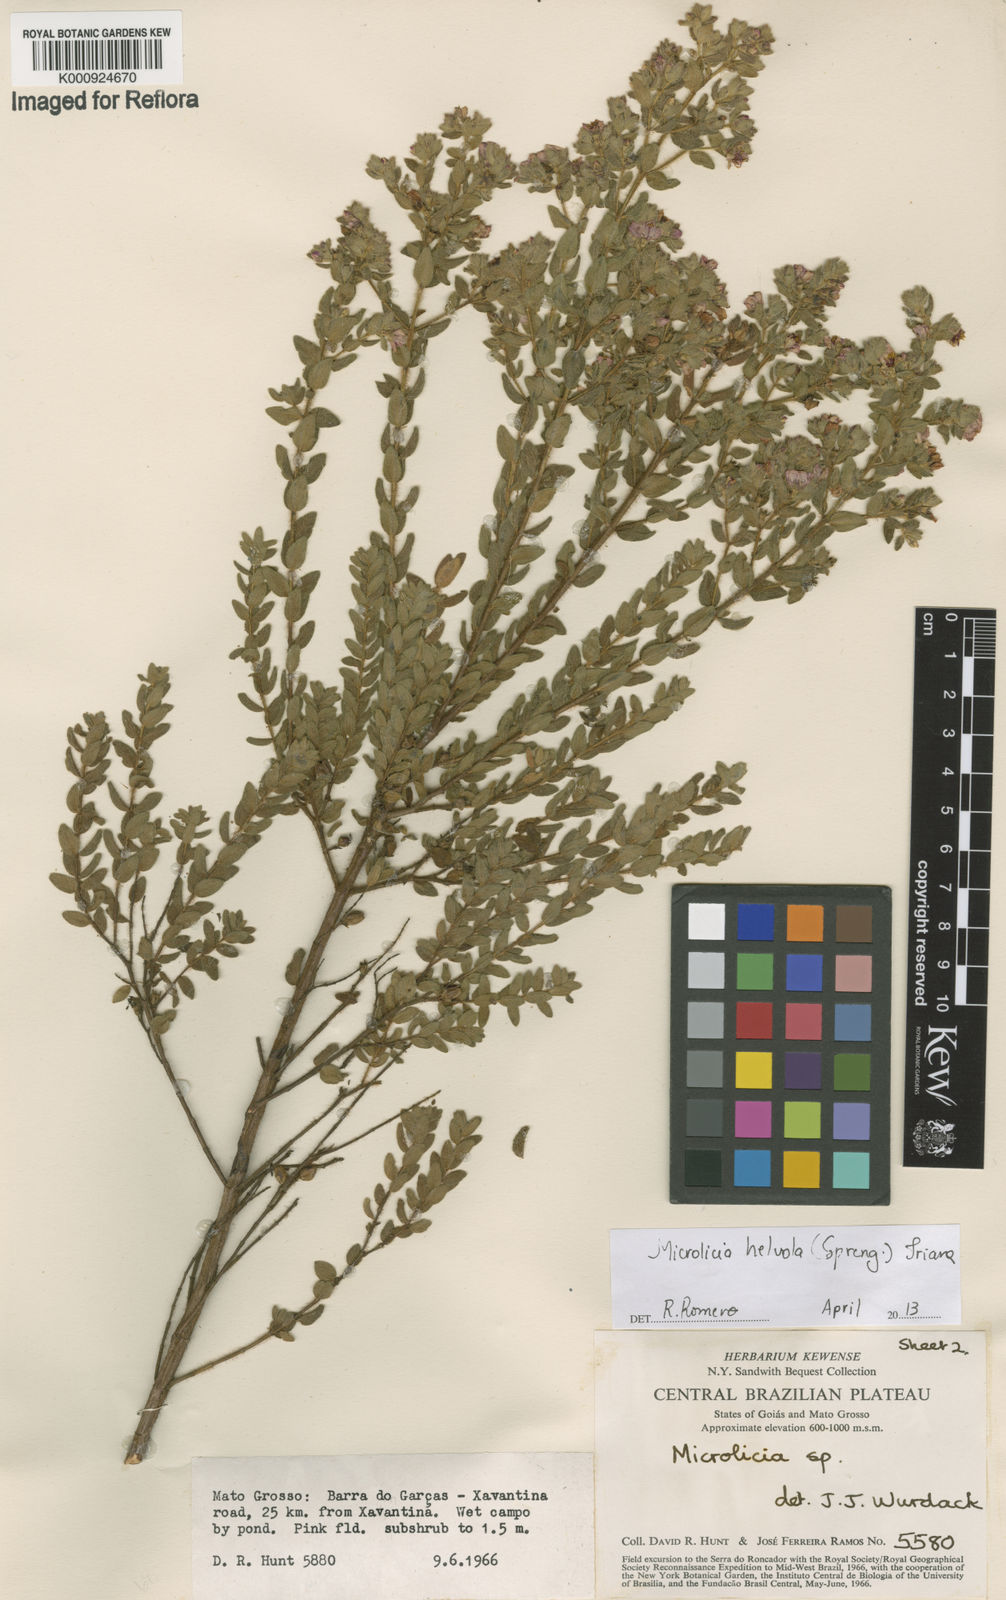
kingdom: Plantae
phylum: Tracheophyta
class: Magnoliopsida
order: Myrtales
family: Melastomataceae
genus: Microlicia
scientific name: Microlicia helvola
